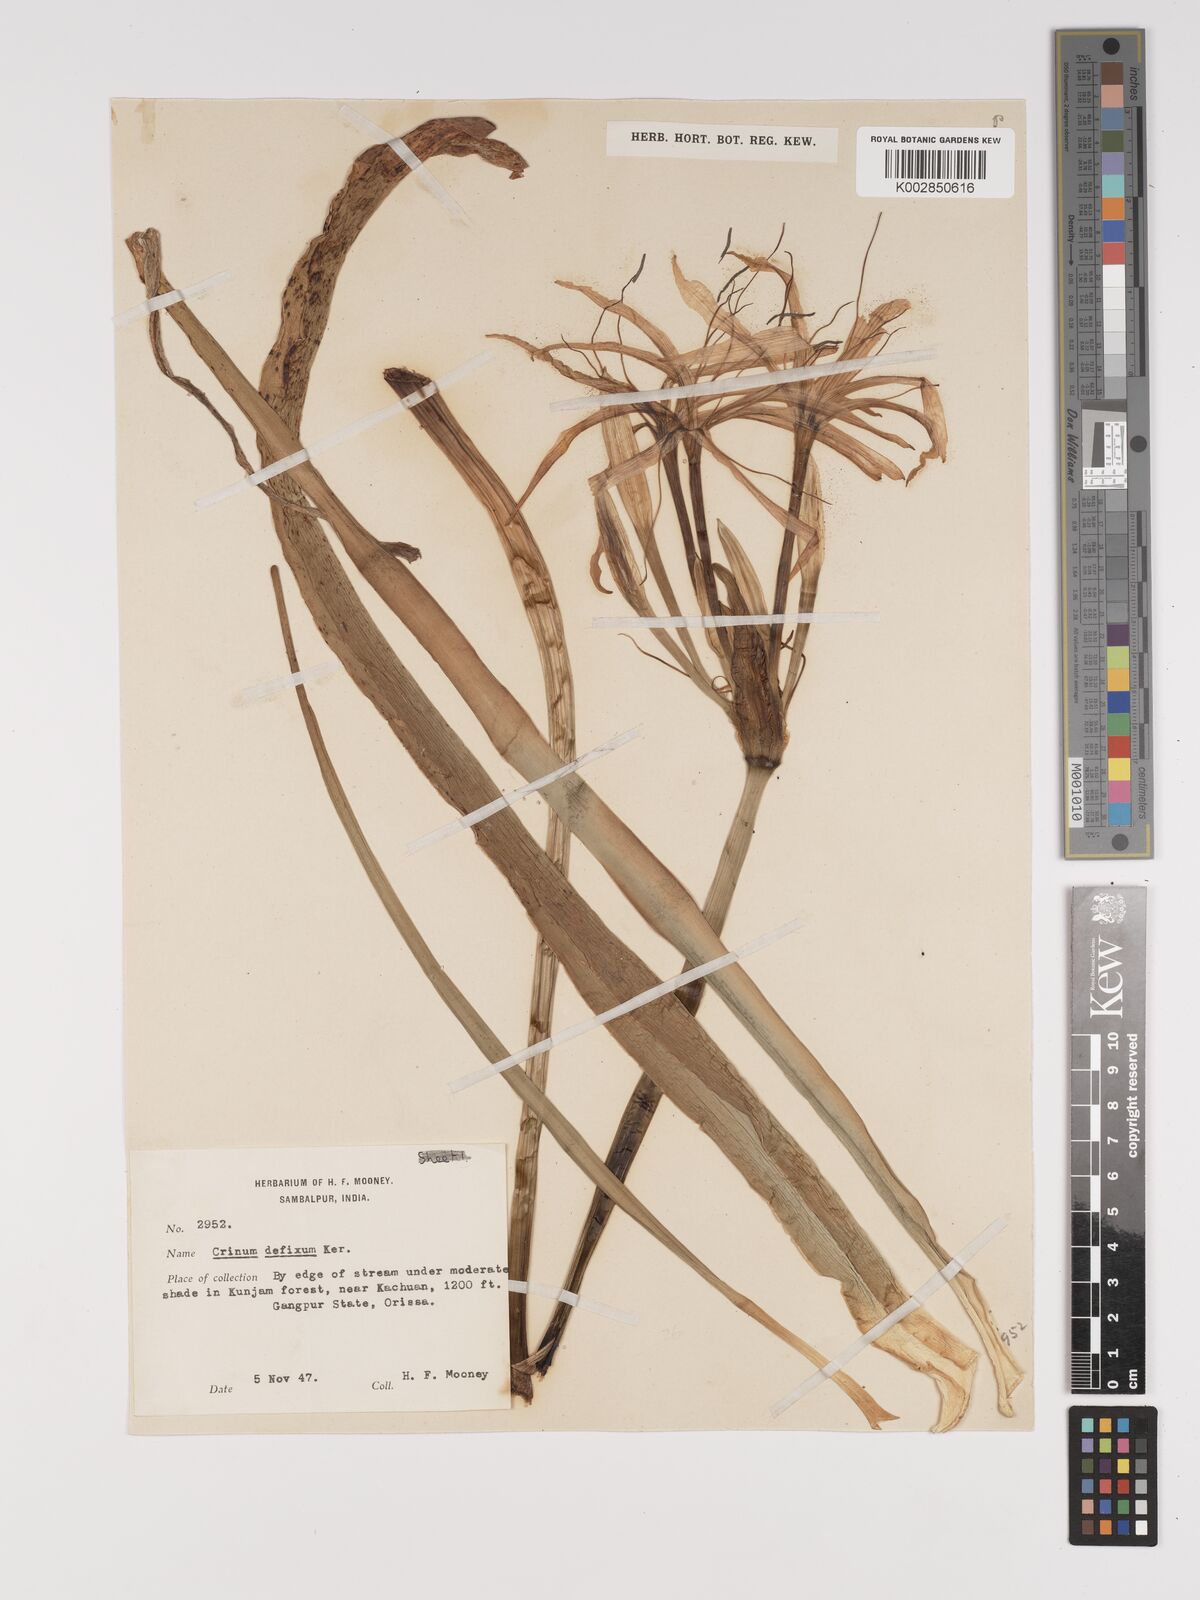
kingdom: Plantae
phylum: Tracheophyta
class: Liliopsida
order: Asparagales
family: Amaryllidaceae
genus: Crinum
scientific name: Crinum defixum
